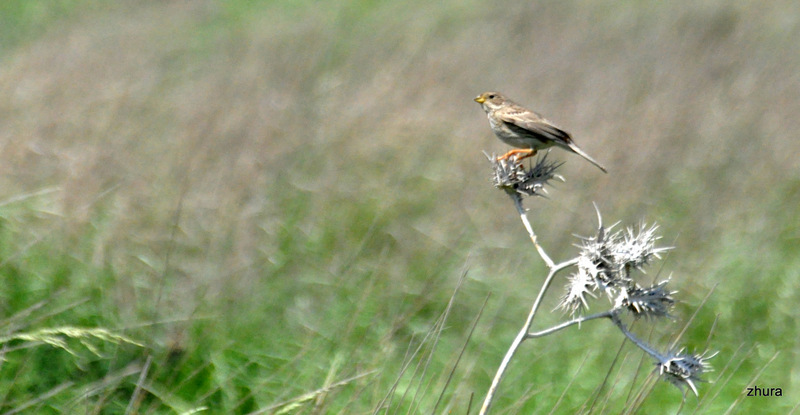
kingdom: Animalia
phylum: Chordata
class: Aves
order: Passeriformes
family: Emberizidae
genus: Emberiza
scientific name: Emberiza calandra
